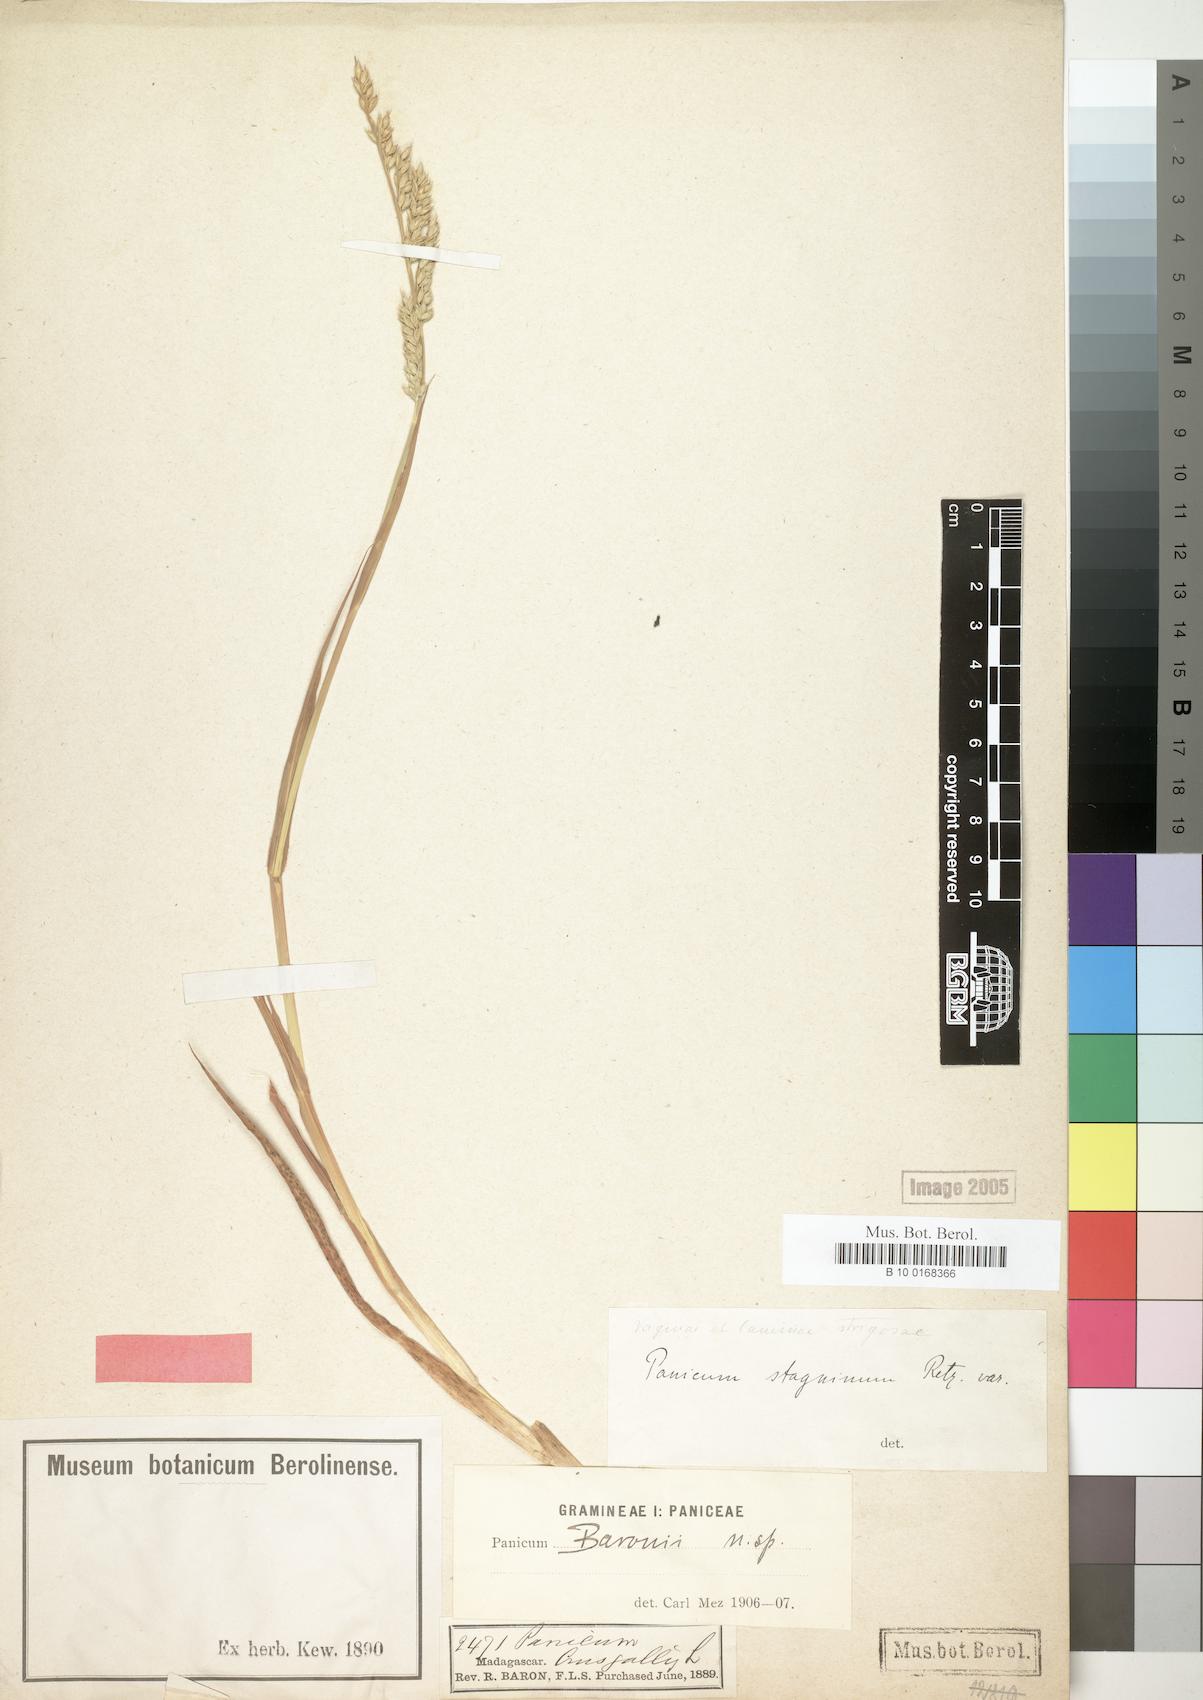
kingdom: Plantae
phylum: Tracheophyta
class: Liliopsida
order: Poales
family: Poaceae
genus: Echinochloa
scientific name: Echinochloa crus-galli
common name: Cockspur
